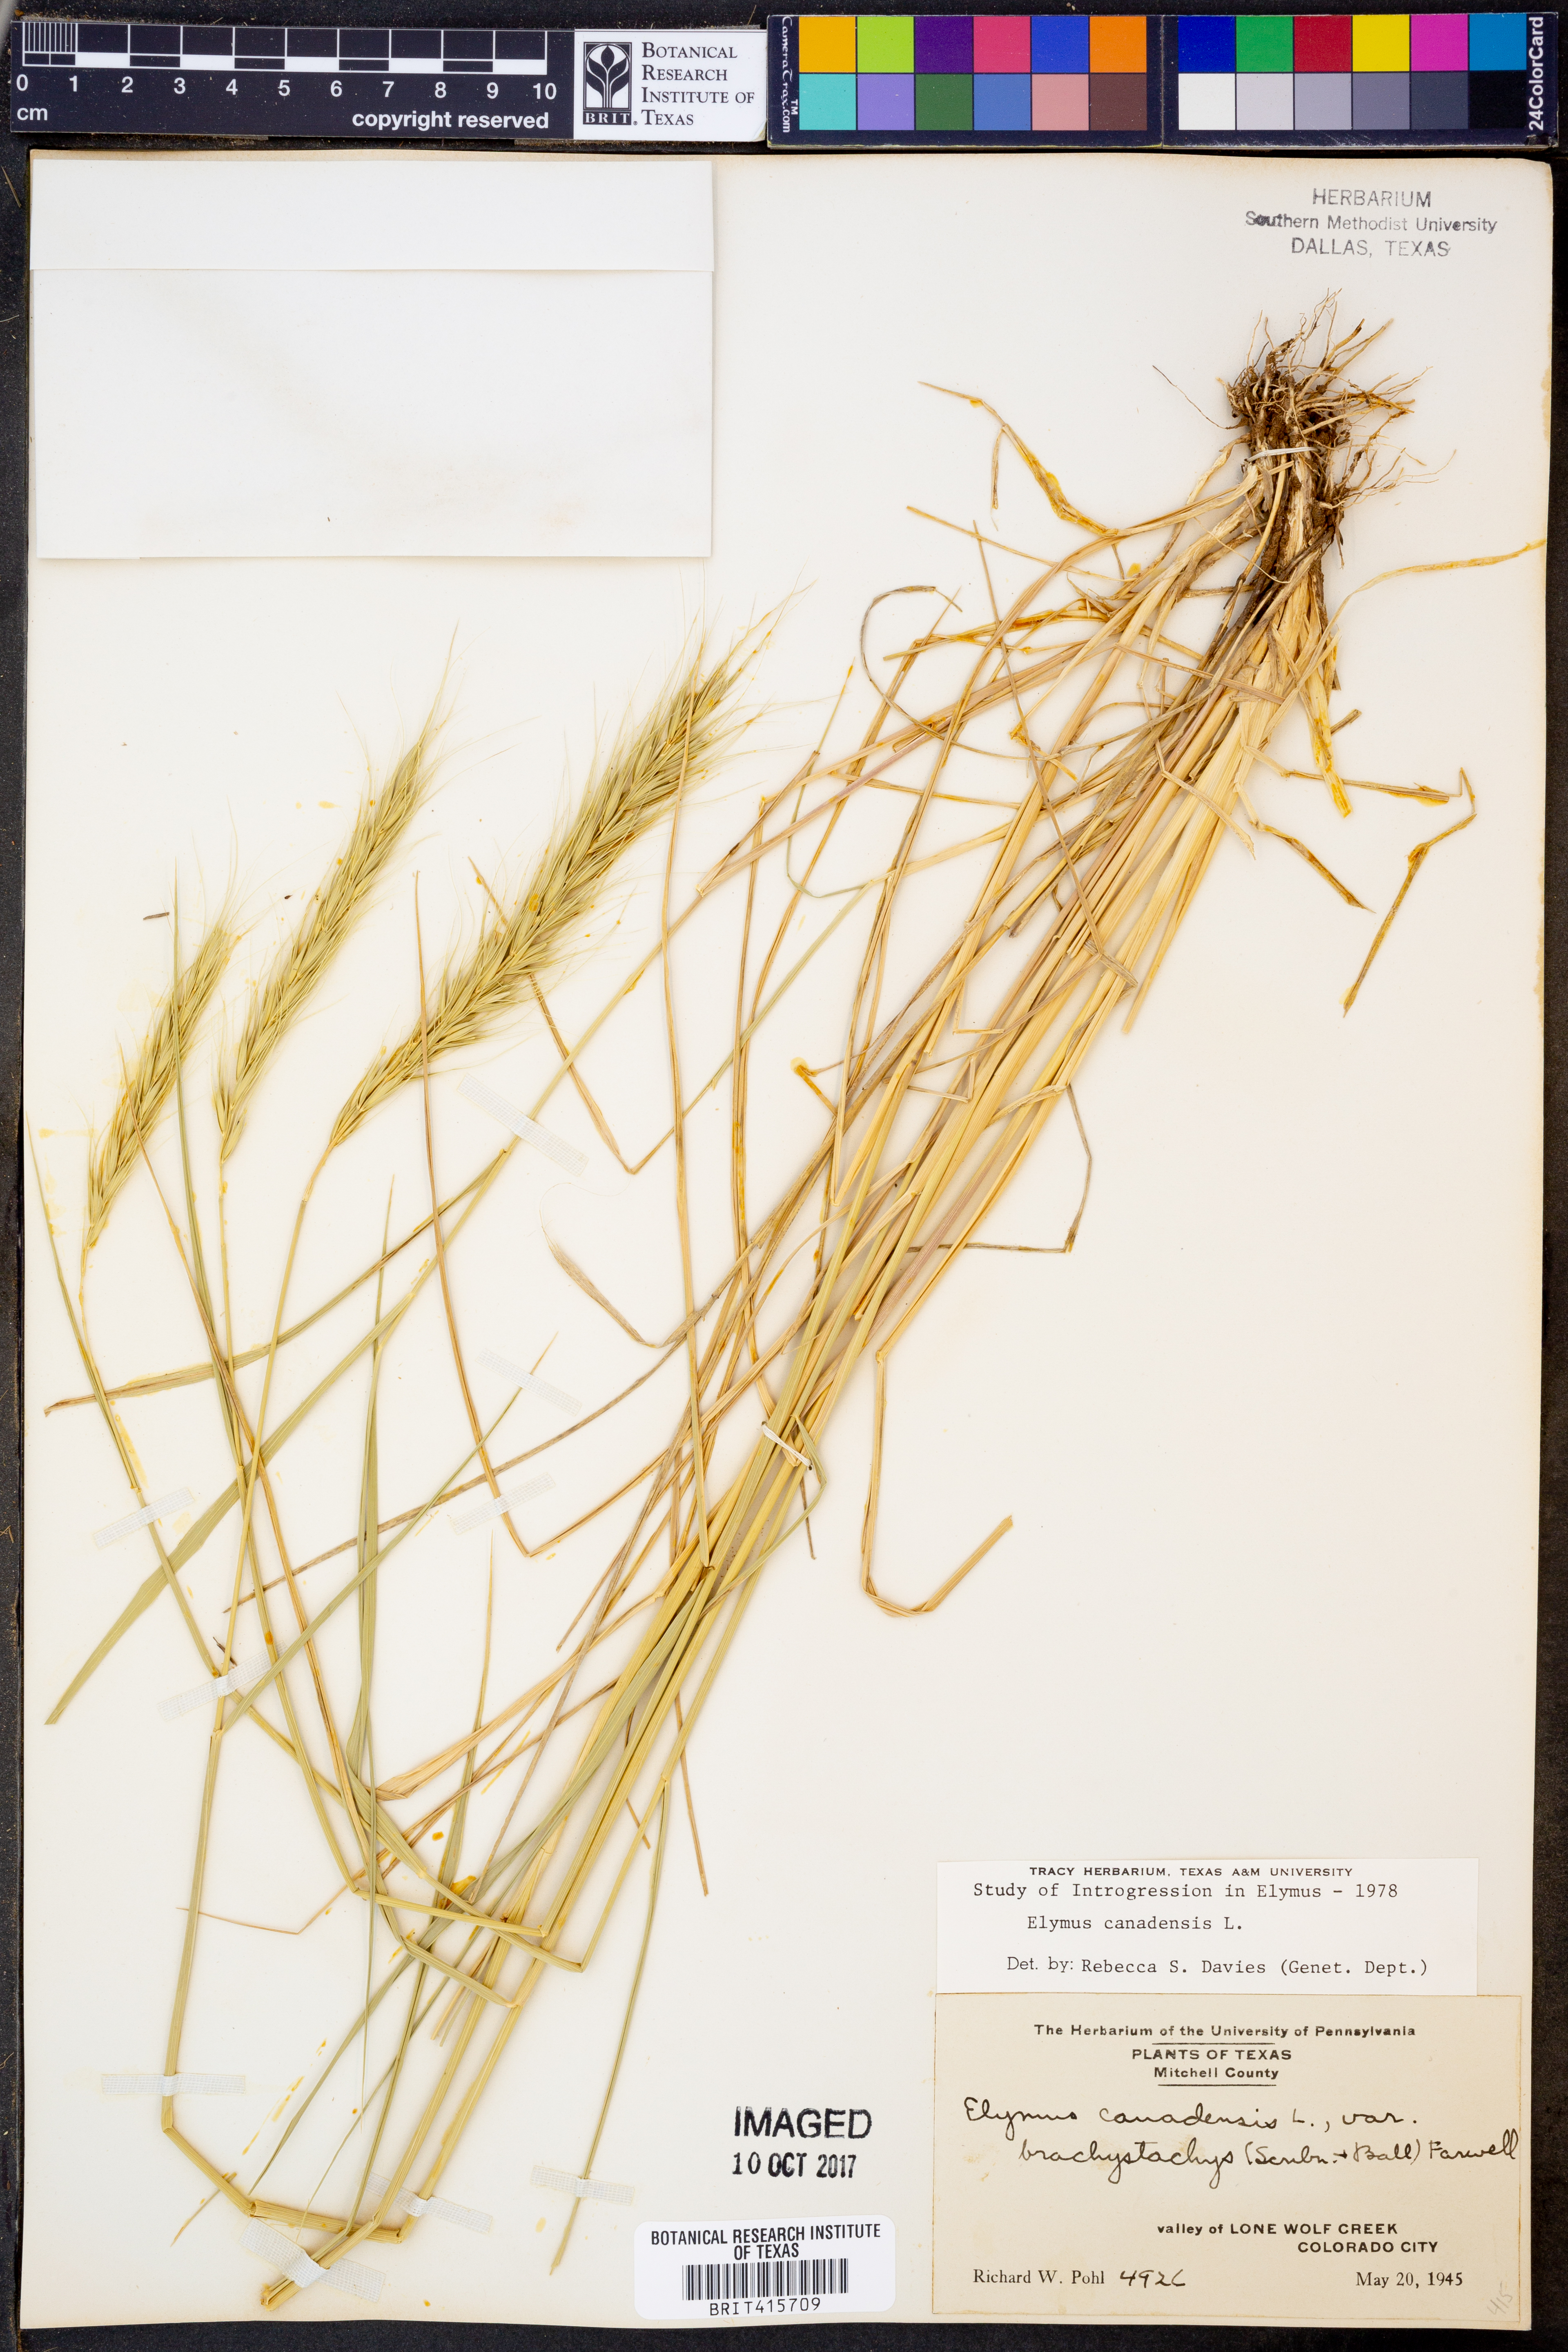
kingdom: Plantae
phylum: Tracheophyta
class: Liliopsida
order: Poales
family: Poaceae
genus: Elymus
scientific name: Elymus canadensis
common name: Canada wild rye
